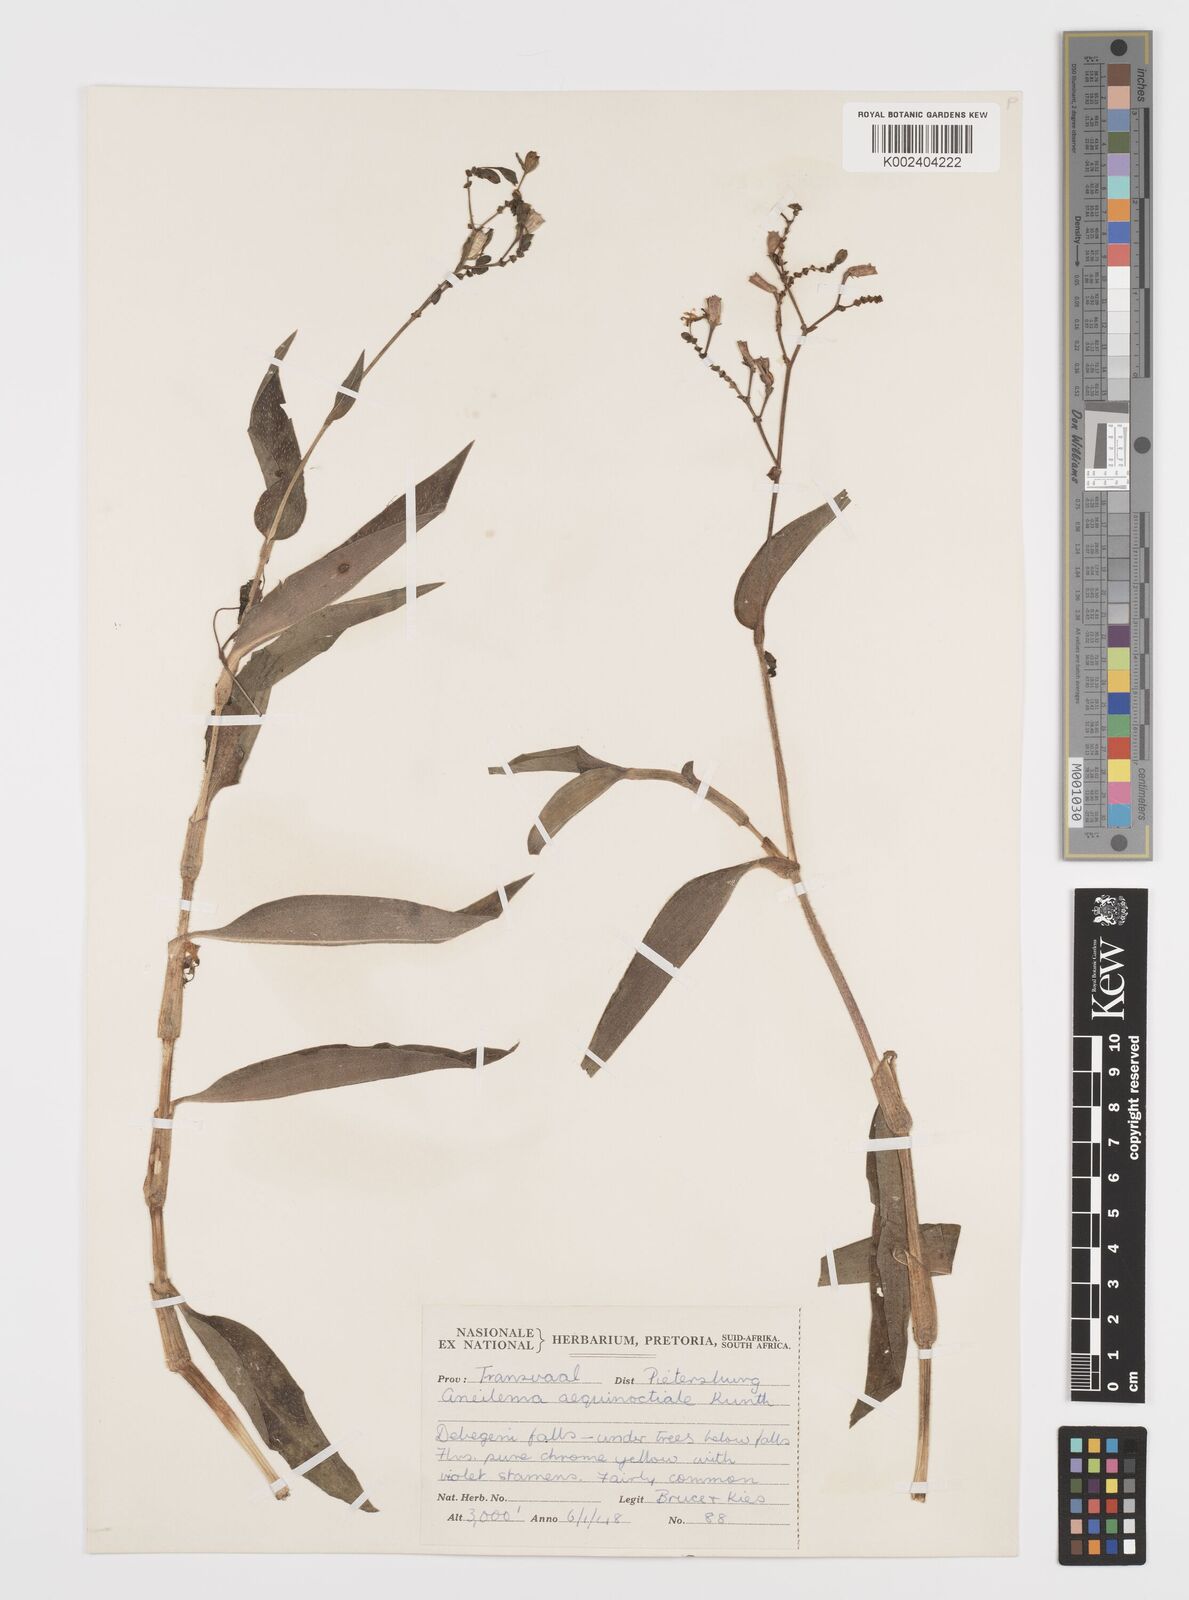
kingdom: Plantae
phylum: Tracheophyta
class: Liliopsida
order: Commelinales
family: Commelinaceae
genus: Aneilema
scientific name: Aneilema aequinoctiale
